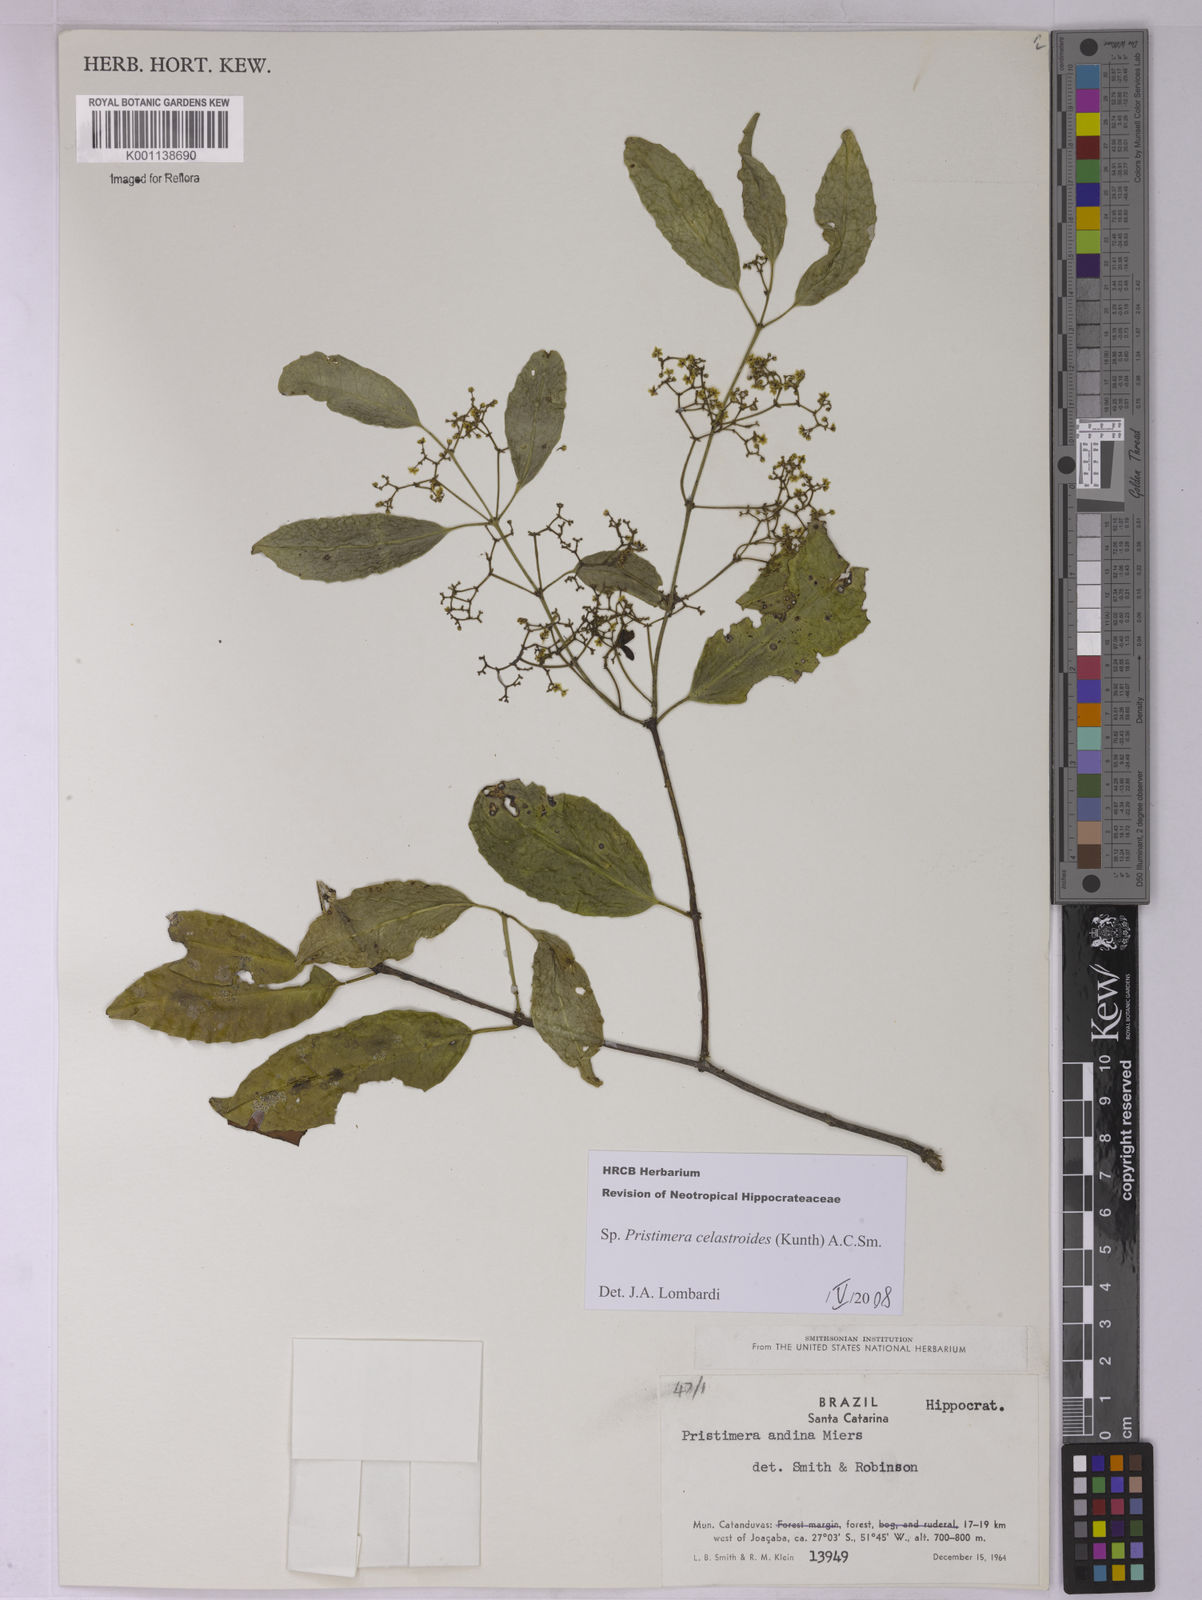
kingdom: Plantae
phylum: Tracheophyta
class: Magnoliopsida
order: Celastrales
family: Celastraceae
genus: Pristimera
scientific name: Pristimera celastroides
